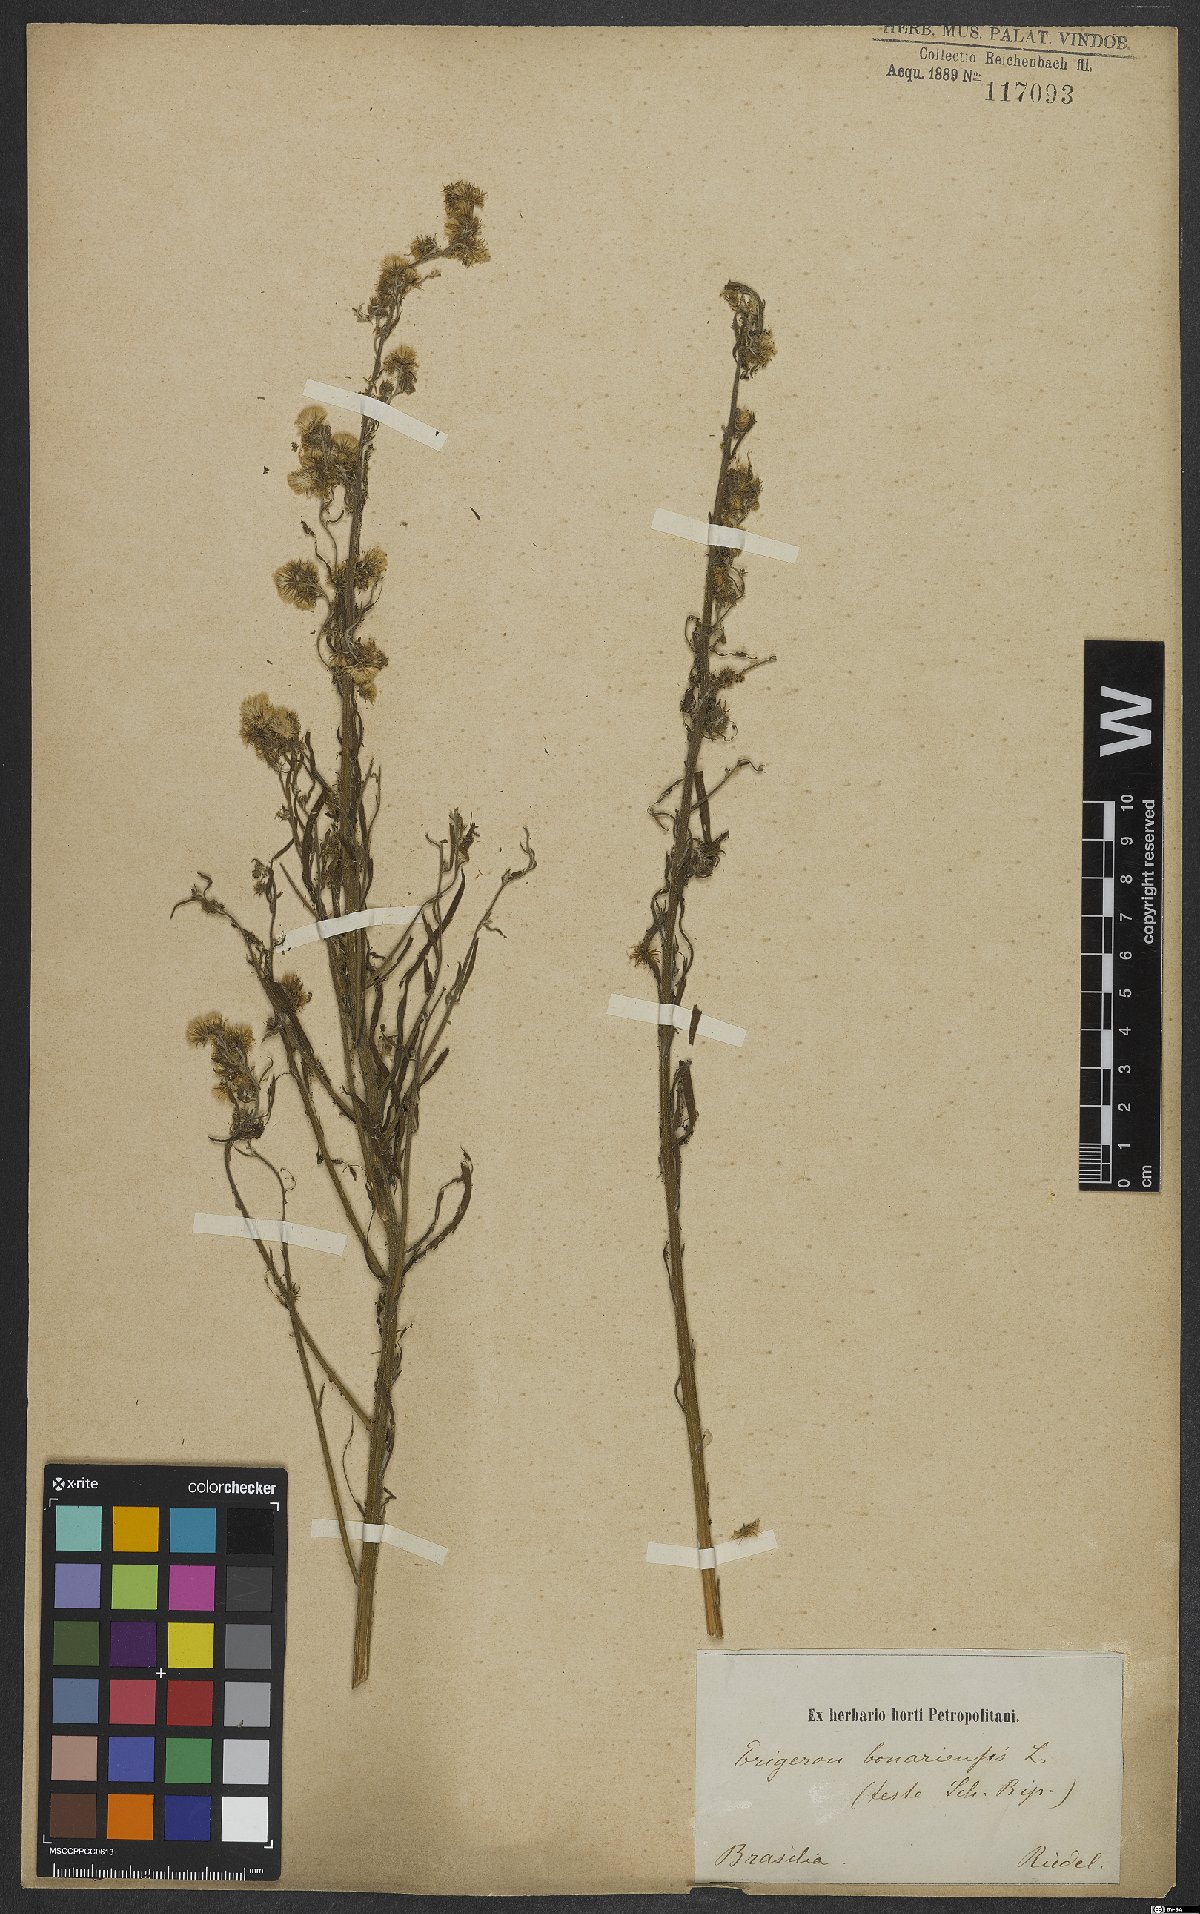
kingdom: Plantae
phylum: Tracheophyta
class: Magnoliopsida
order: Asterales
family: Asteraceae
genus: Erigeron
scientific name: Erigeron bonariensis
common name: Argentine fleabane
